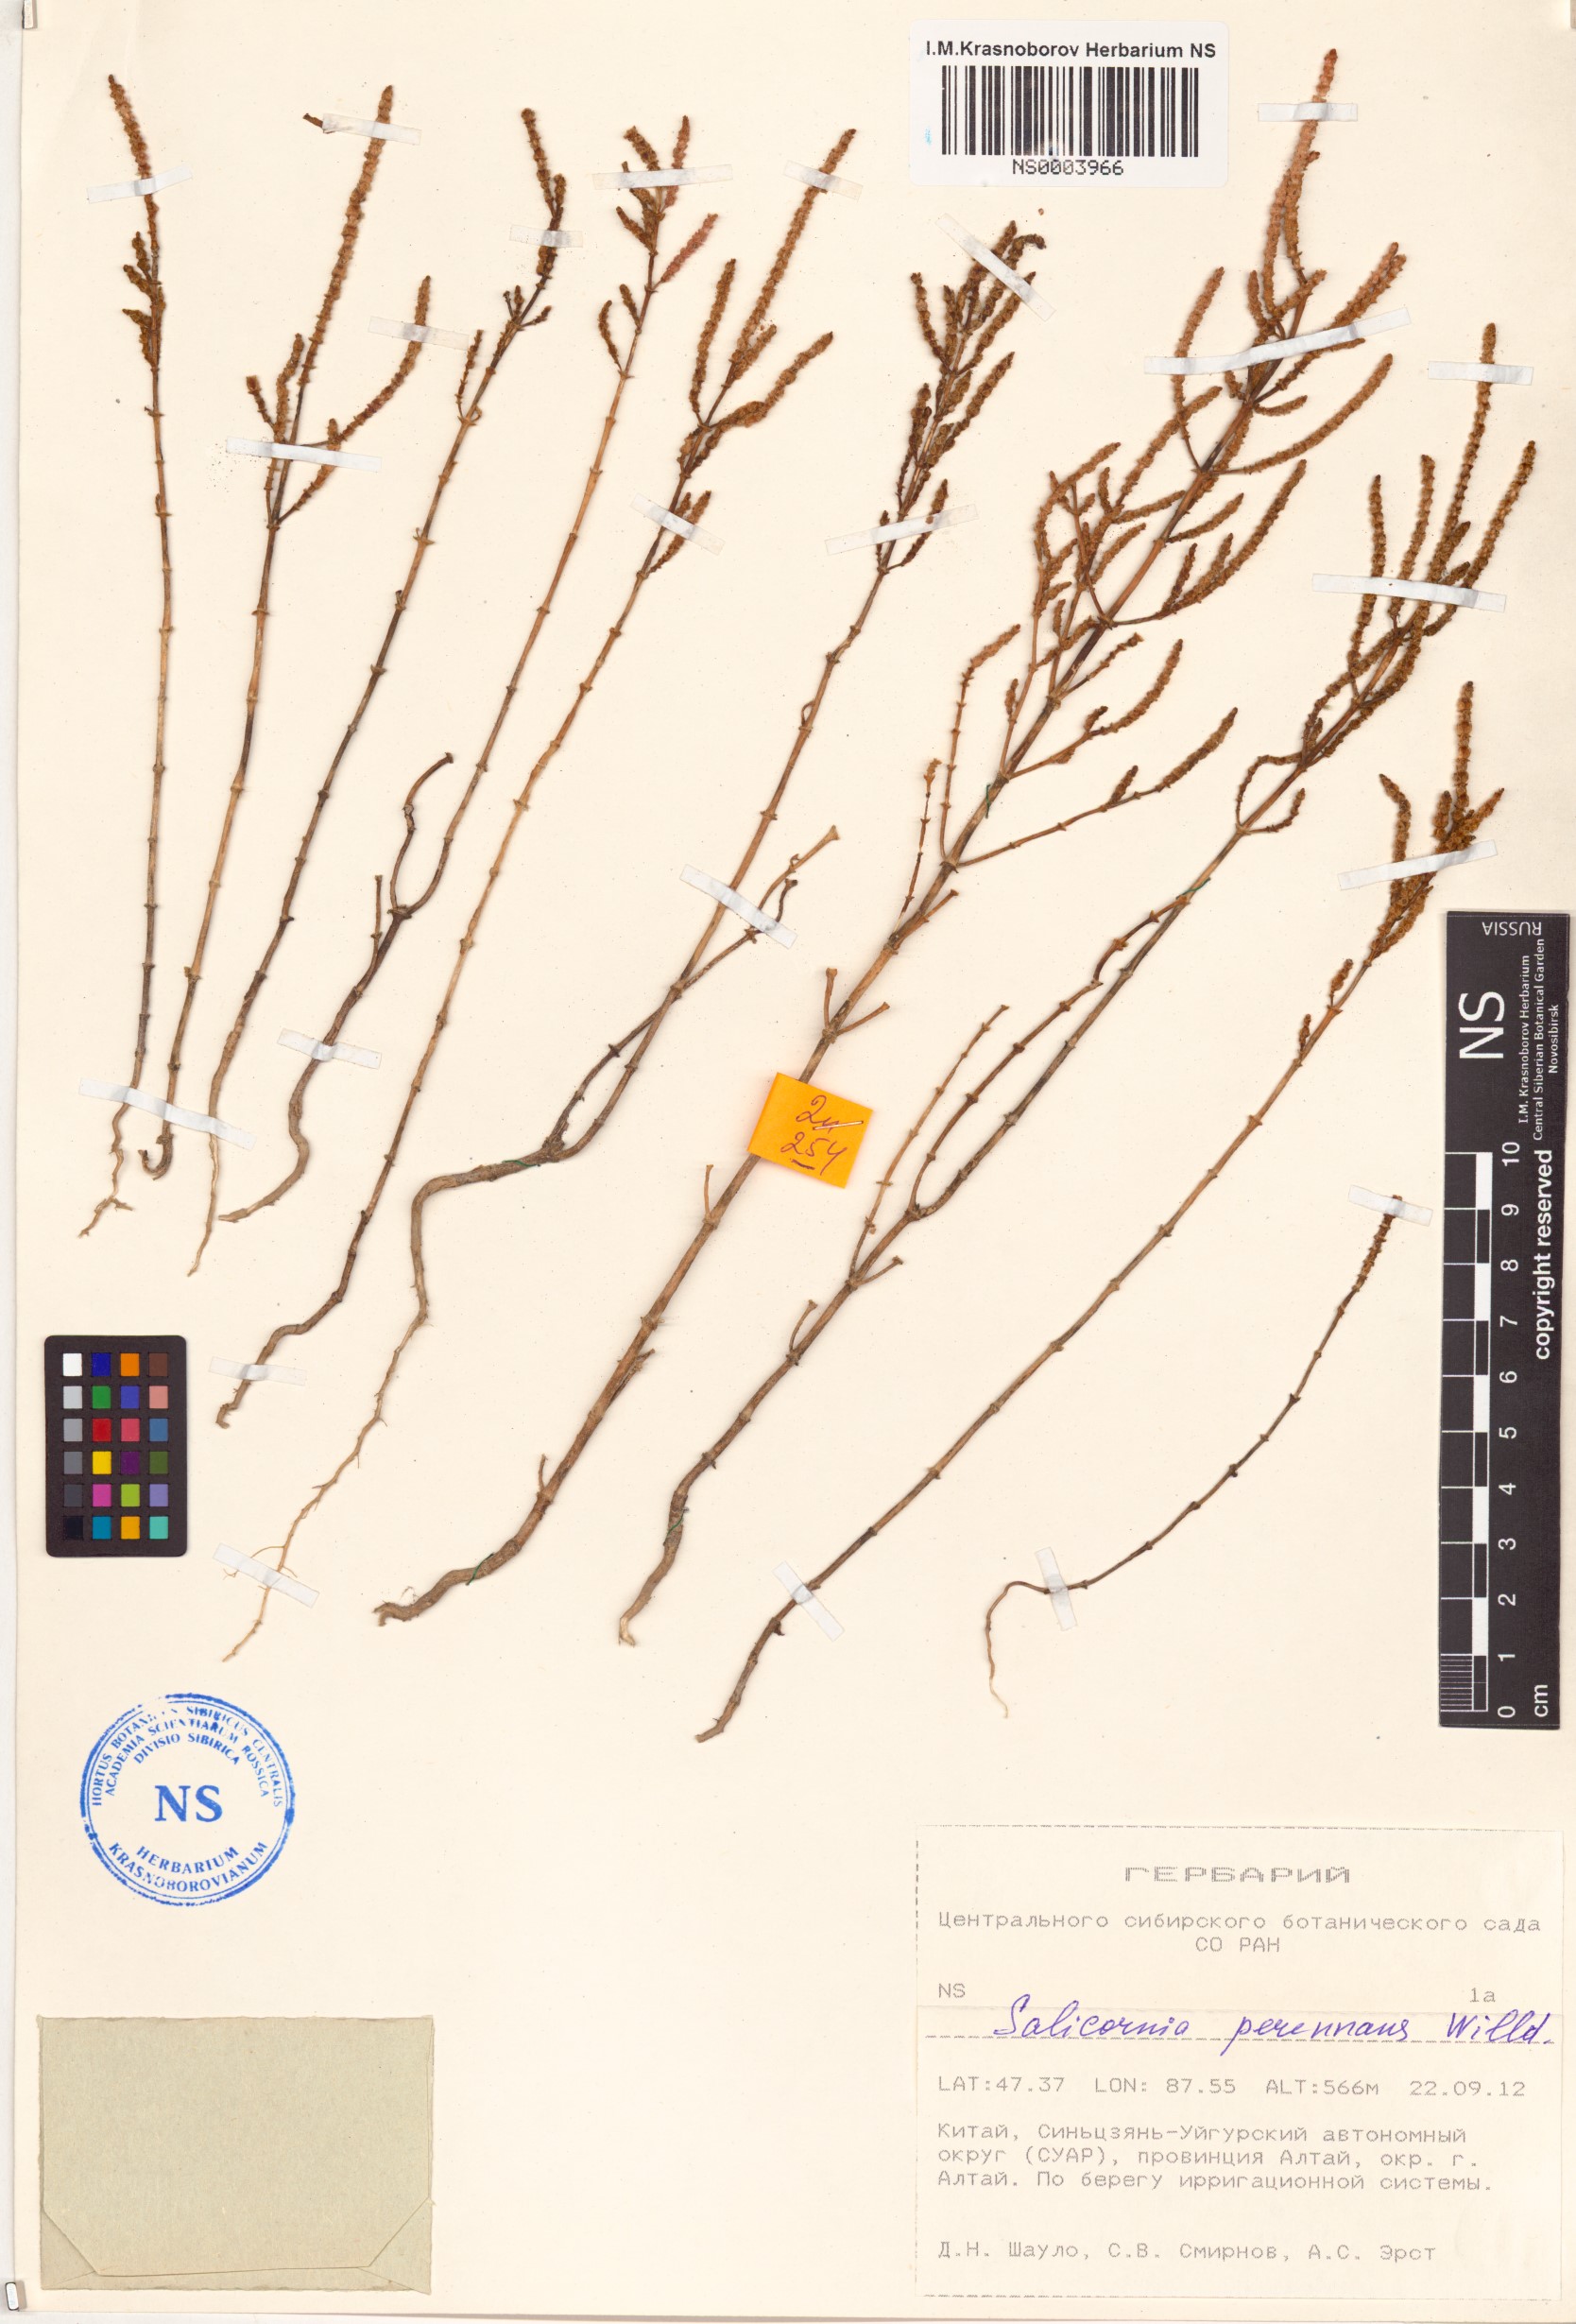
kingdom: Plantae
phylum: Tracheophyta
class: Magnoliopsida
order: Caryophyllales
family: Amaranthaceae
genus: Salicornia
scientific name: Salicornia
